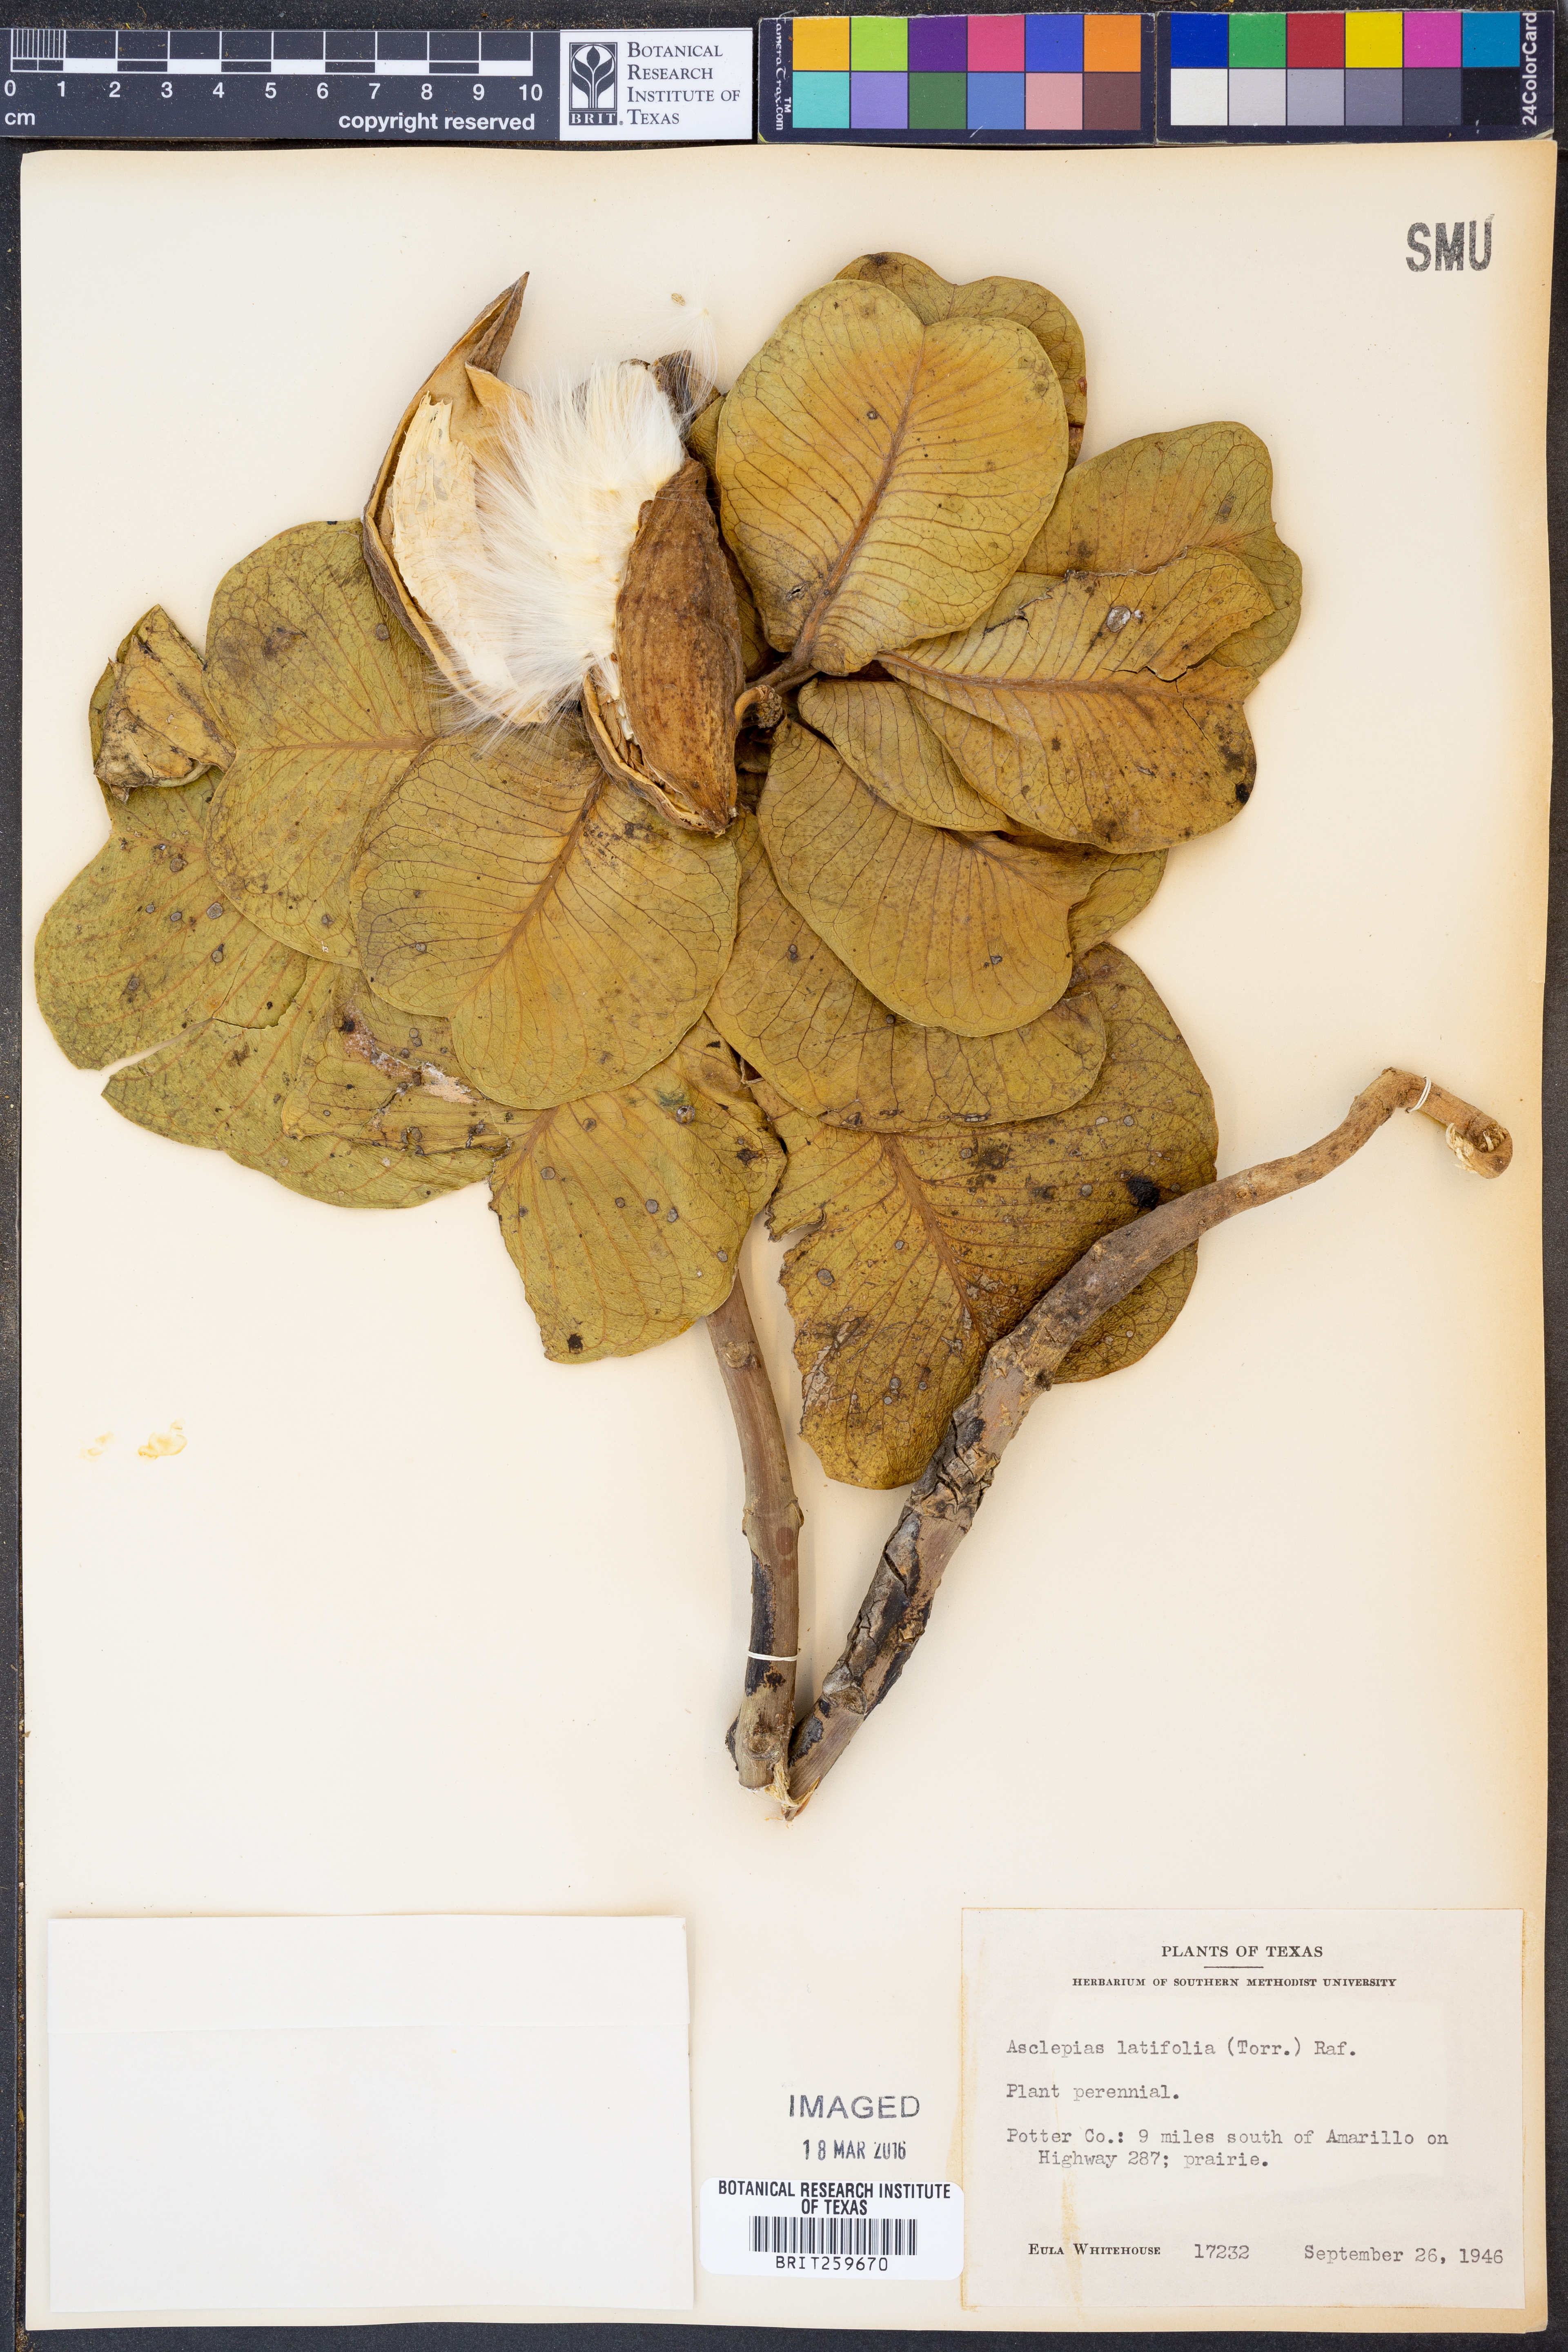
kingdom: Plantae
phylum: Tracheophyta
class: Magnoliopsida
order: Gentianales
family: Apocynaceae
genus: Asclepias
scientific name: Asclepias latifolia
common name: Broadleaf milkweed
